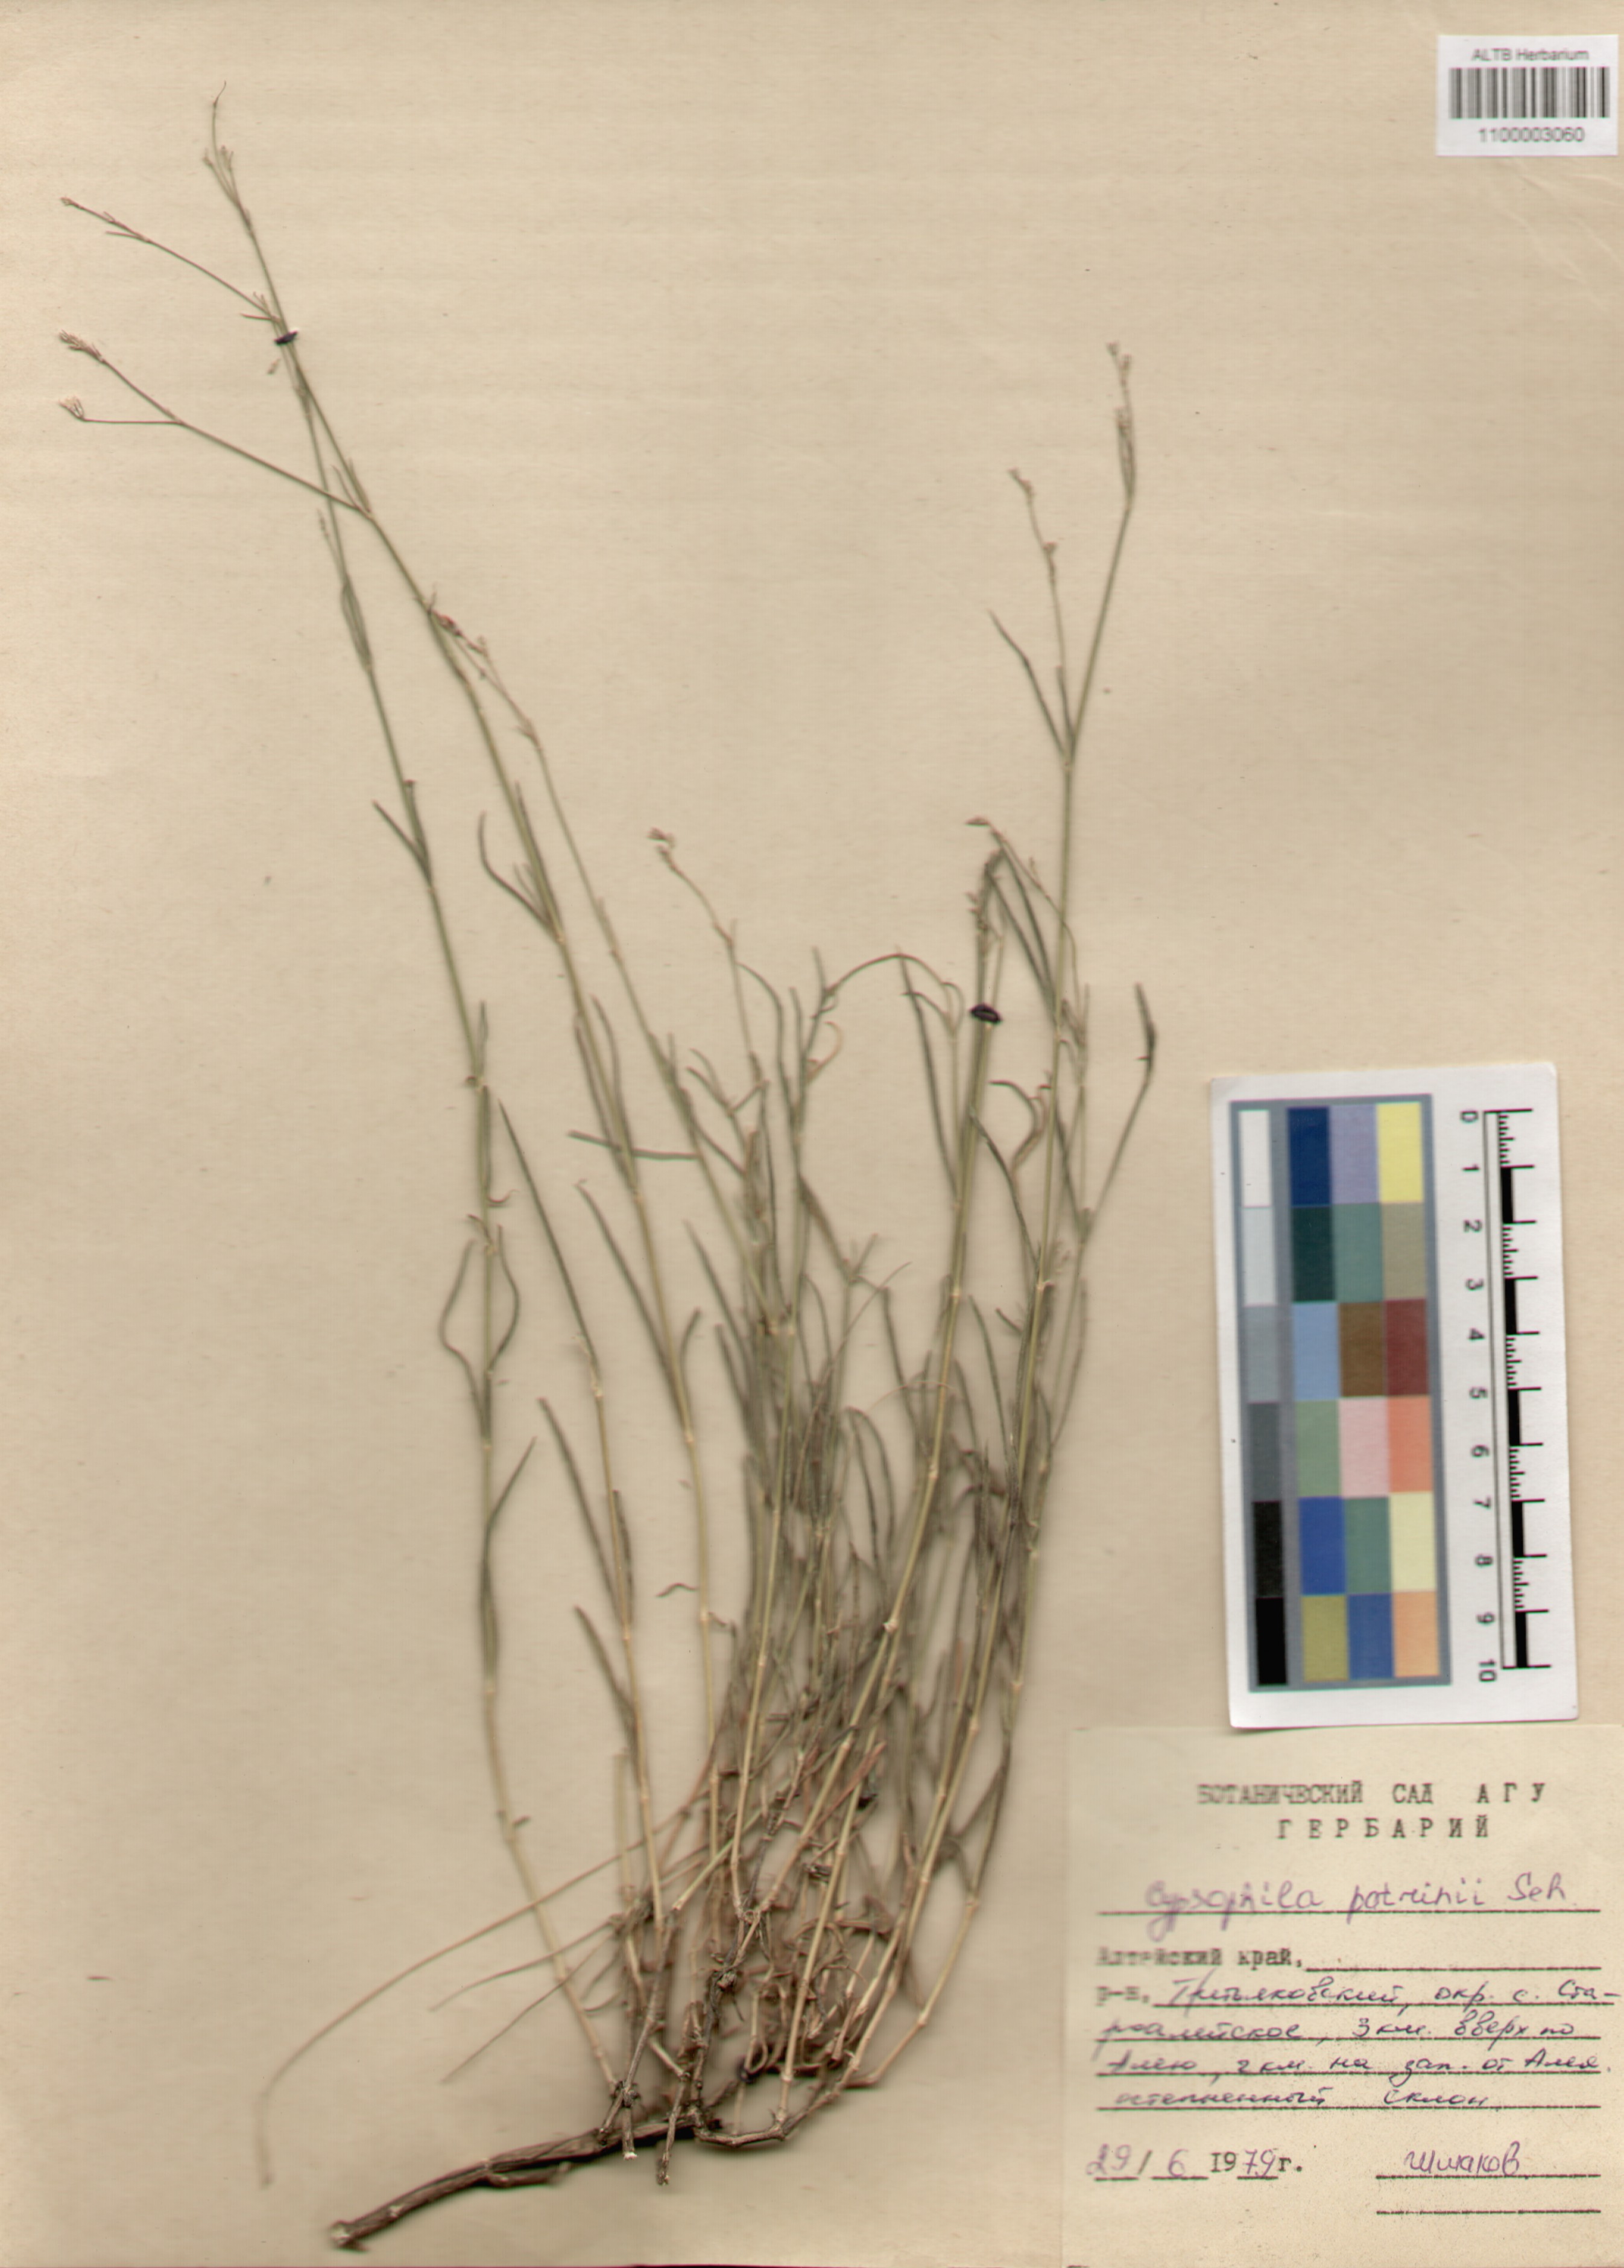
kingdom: Plantae
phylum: Tracheophyta
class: Magnoliopsida
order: Caryophyllales
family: Caryophyllaceae
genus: Gypsophila
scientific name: Gypsophila patrinii
